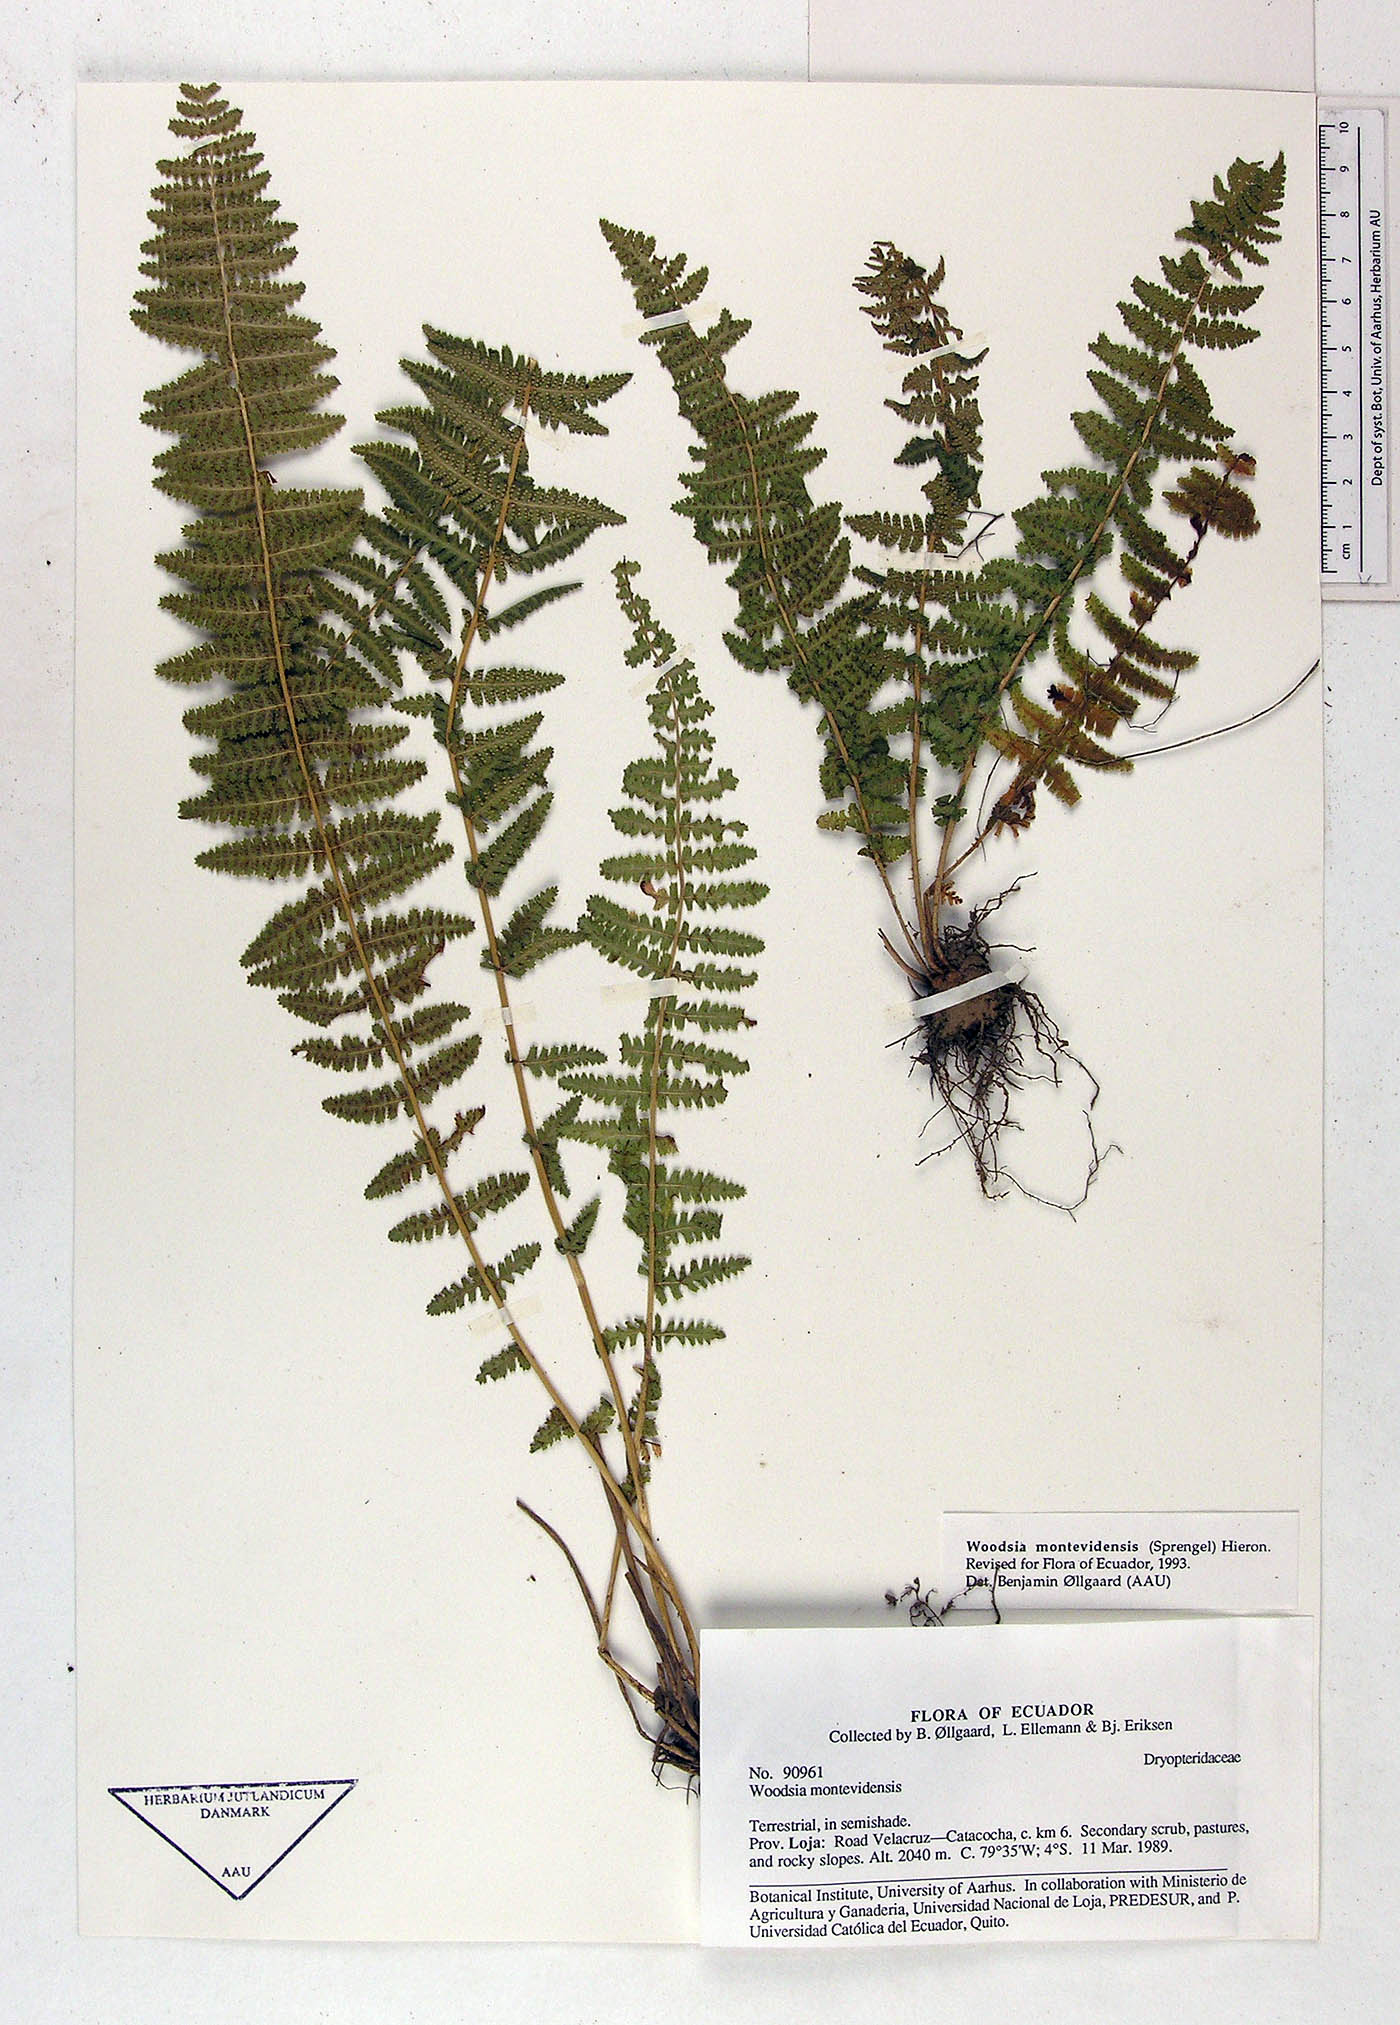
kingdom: Plantae
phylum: Tracheophyta
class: Polypodiopsida
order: Polypodiales
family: Woodsiaceae
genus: Physematium
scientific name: Physematium montevidense
